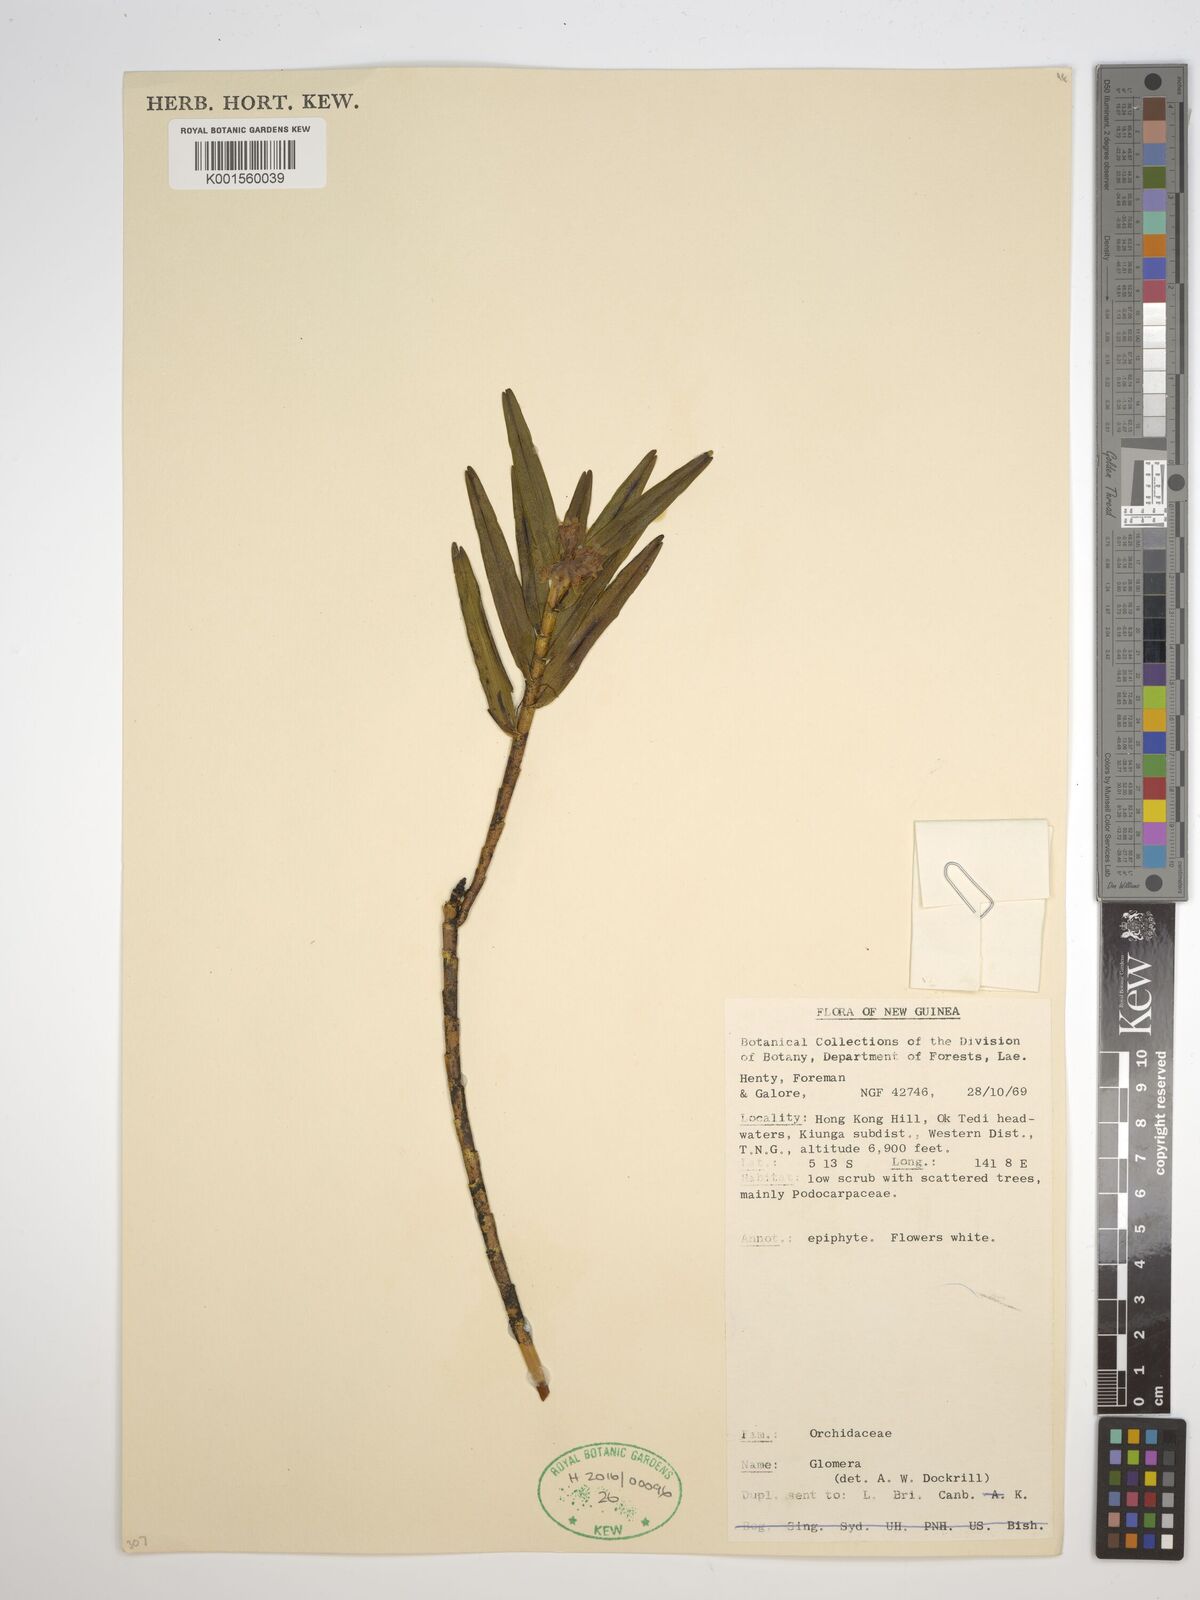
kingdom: Plantae
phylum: Tracheophyta
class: Liliopsida
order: Asparagales
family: Orchidaceae
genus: Glomera
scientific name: Glomera
